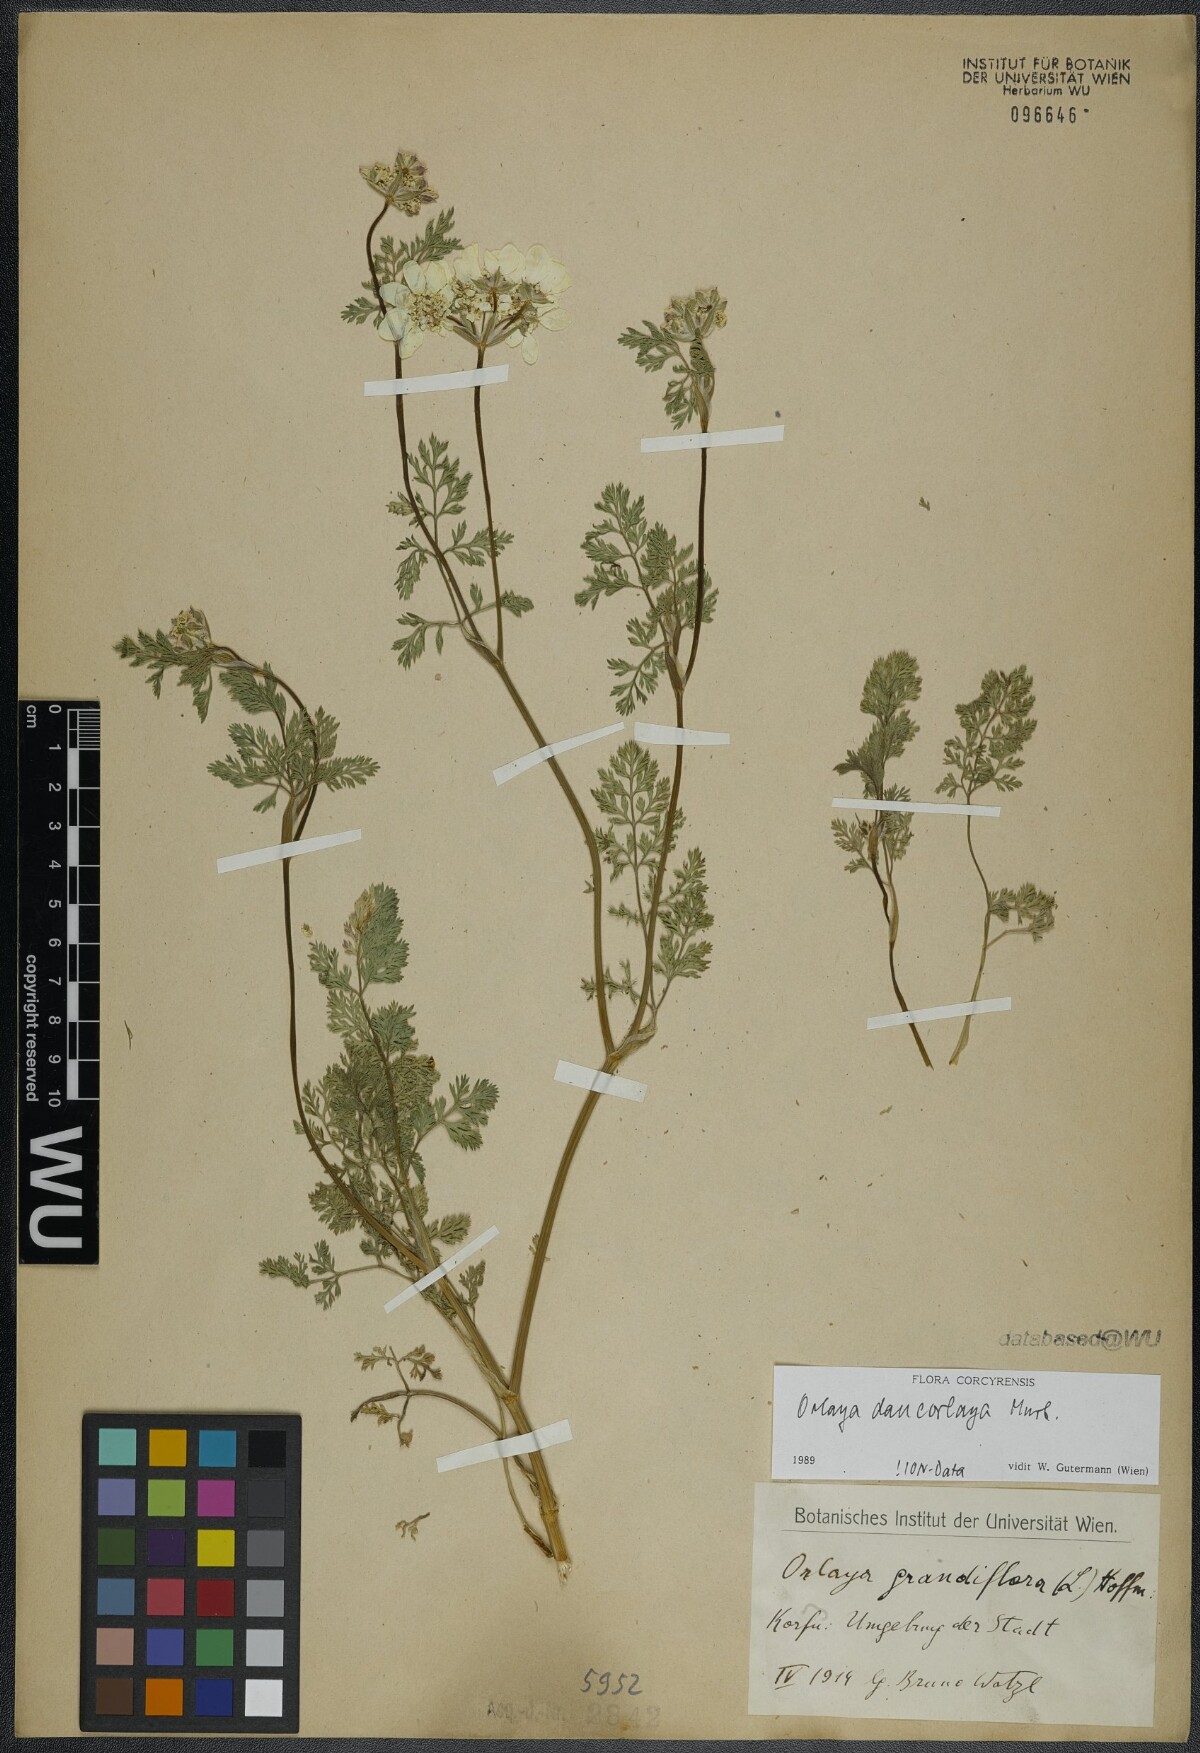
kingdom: Plantae
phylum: Tracheophyta
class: Magnoliopsida
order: Apiales
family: Apiaceae
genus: Orlaya
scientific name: Orlaya daucorlaya
